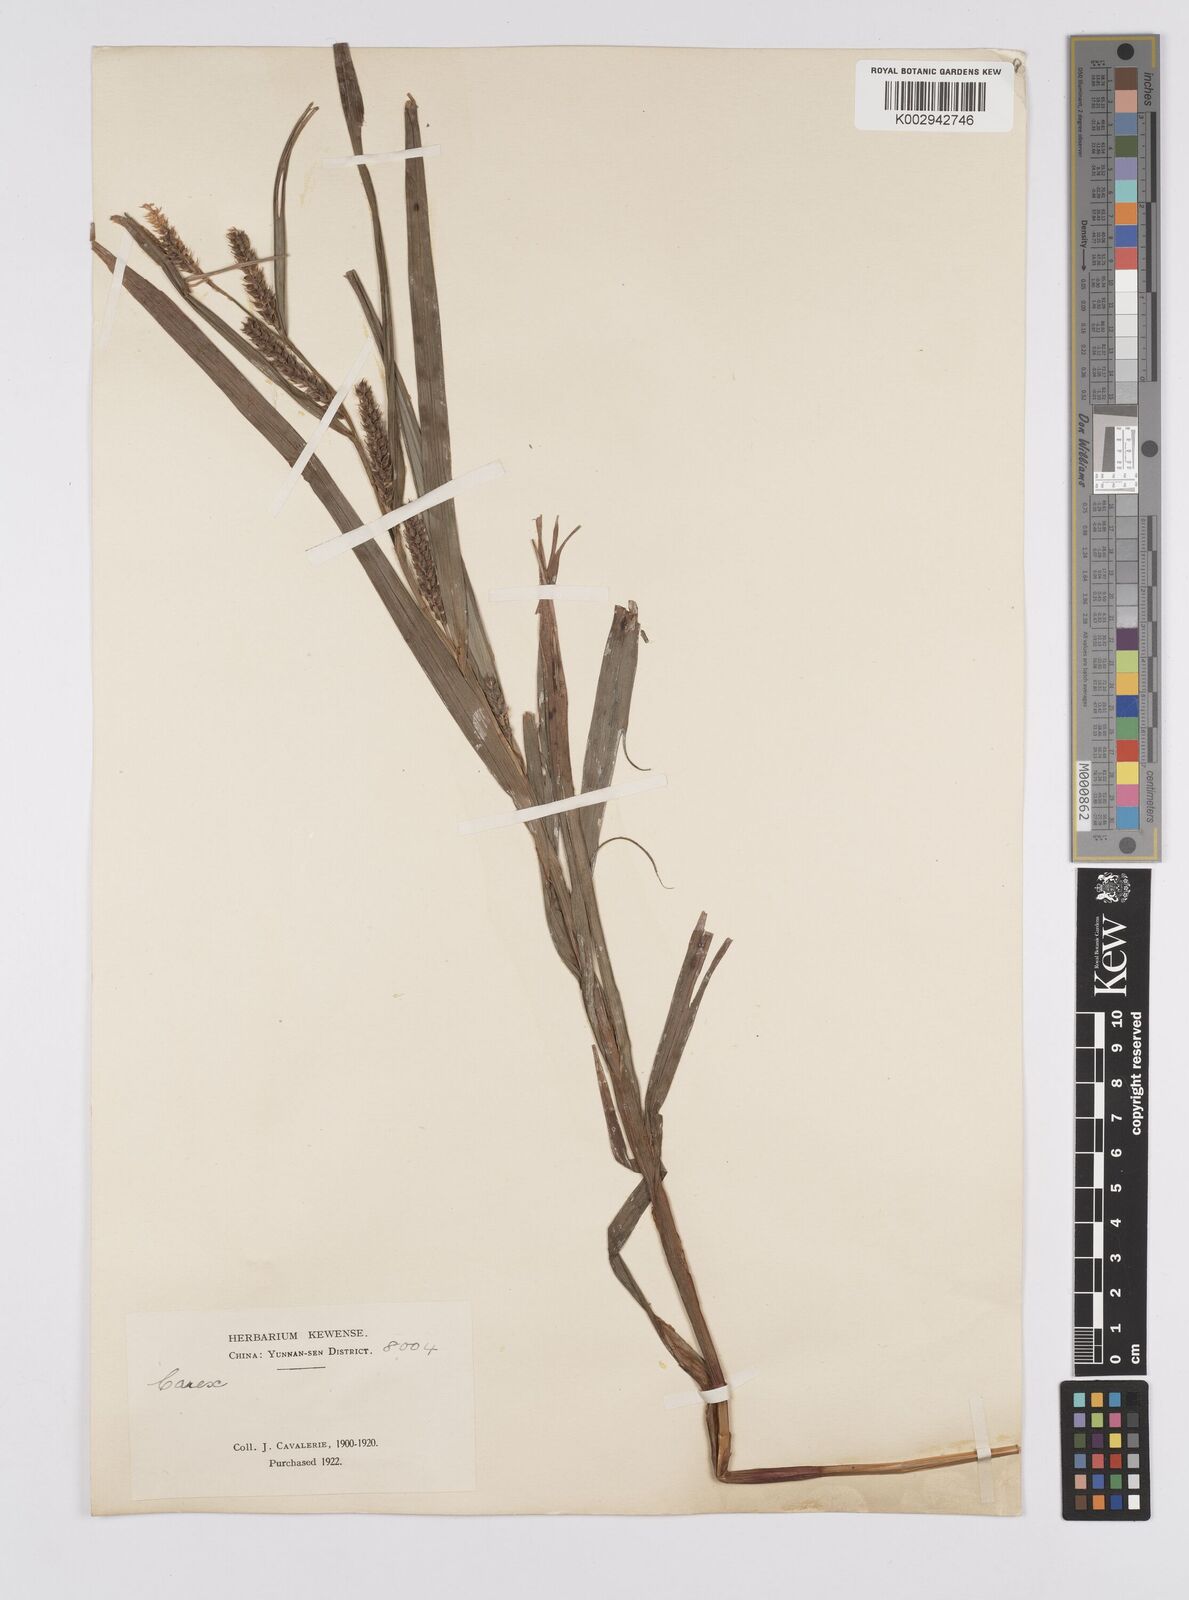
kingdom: Plantae
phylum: Tracheophyta
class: Liliopsida
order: Poales
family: Cyperaceae
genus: Carex
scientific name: Carex ligulata
